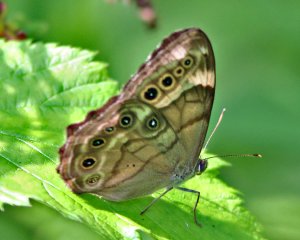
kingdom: Animalia
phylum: Arthropoda
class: Insecta
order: Lepidoptera
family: Nymphalidae
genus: Lethe
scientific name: Lethe anthedon
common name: Northern Pearly-Eye
